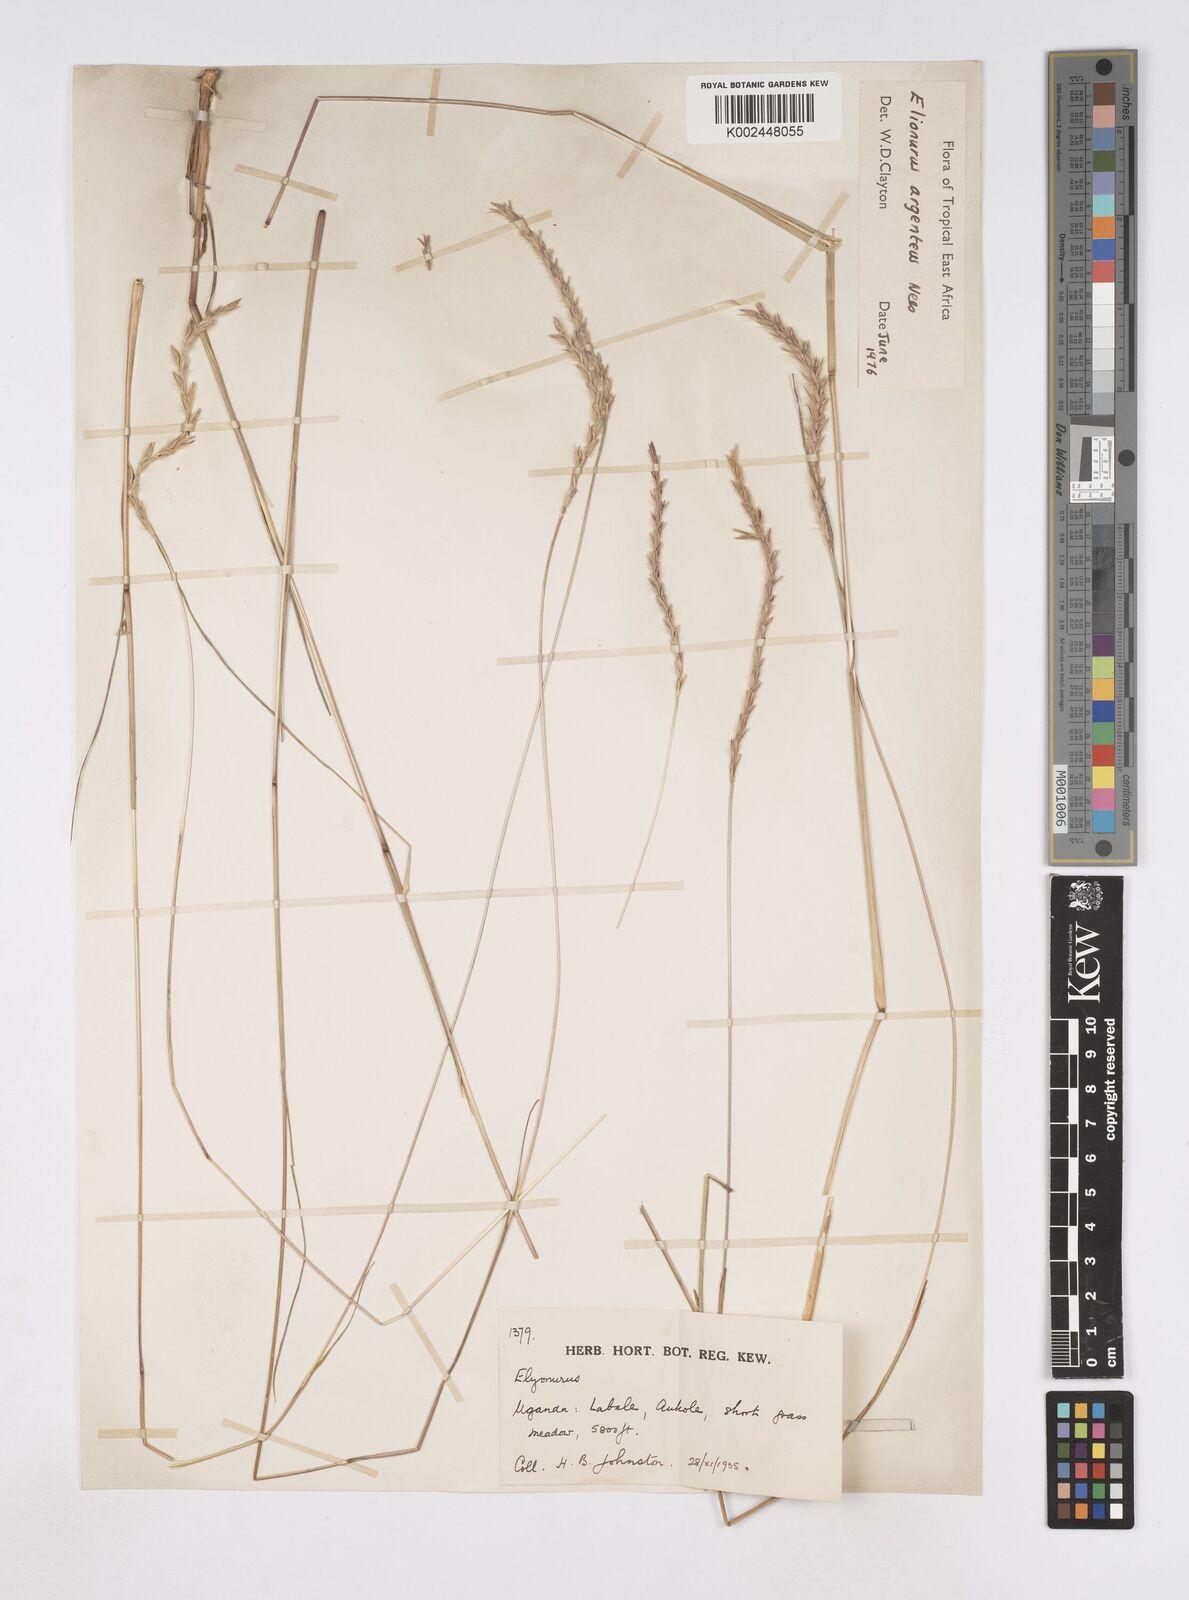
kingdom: Plantae
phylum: Tracheophyta
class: Liliopsida
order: Poales
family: Poaceae
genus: Elionurus
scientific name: Elionurus muticus
